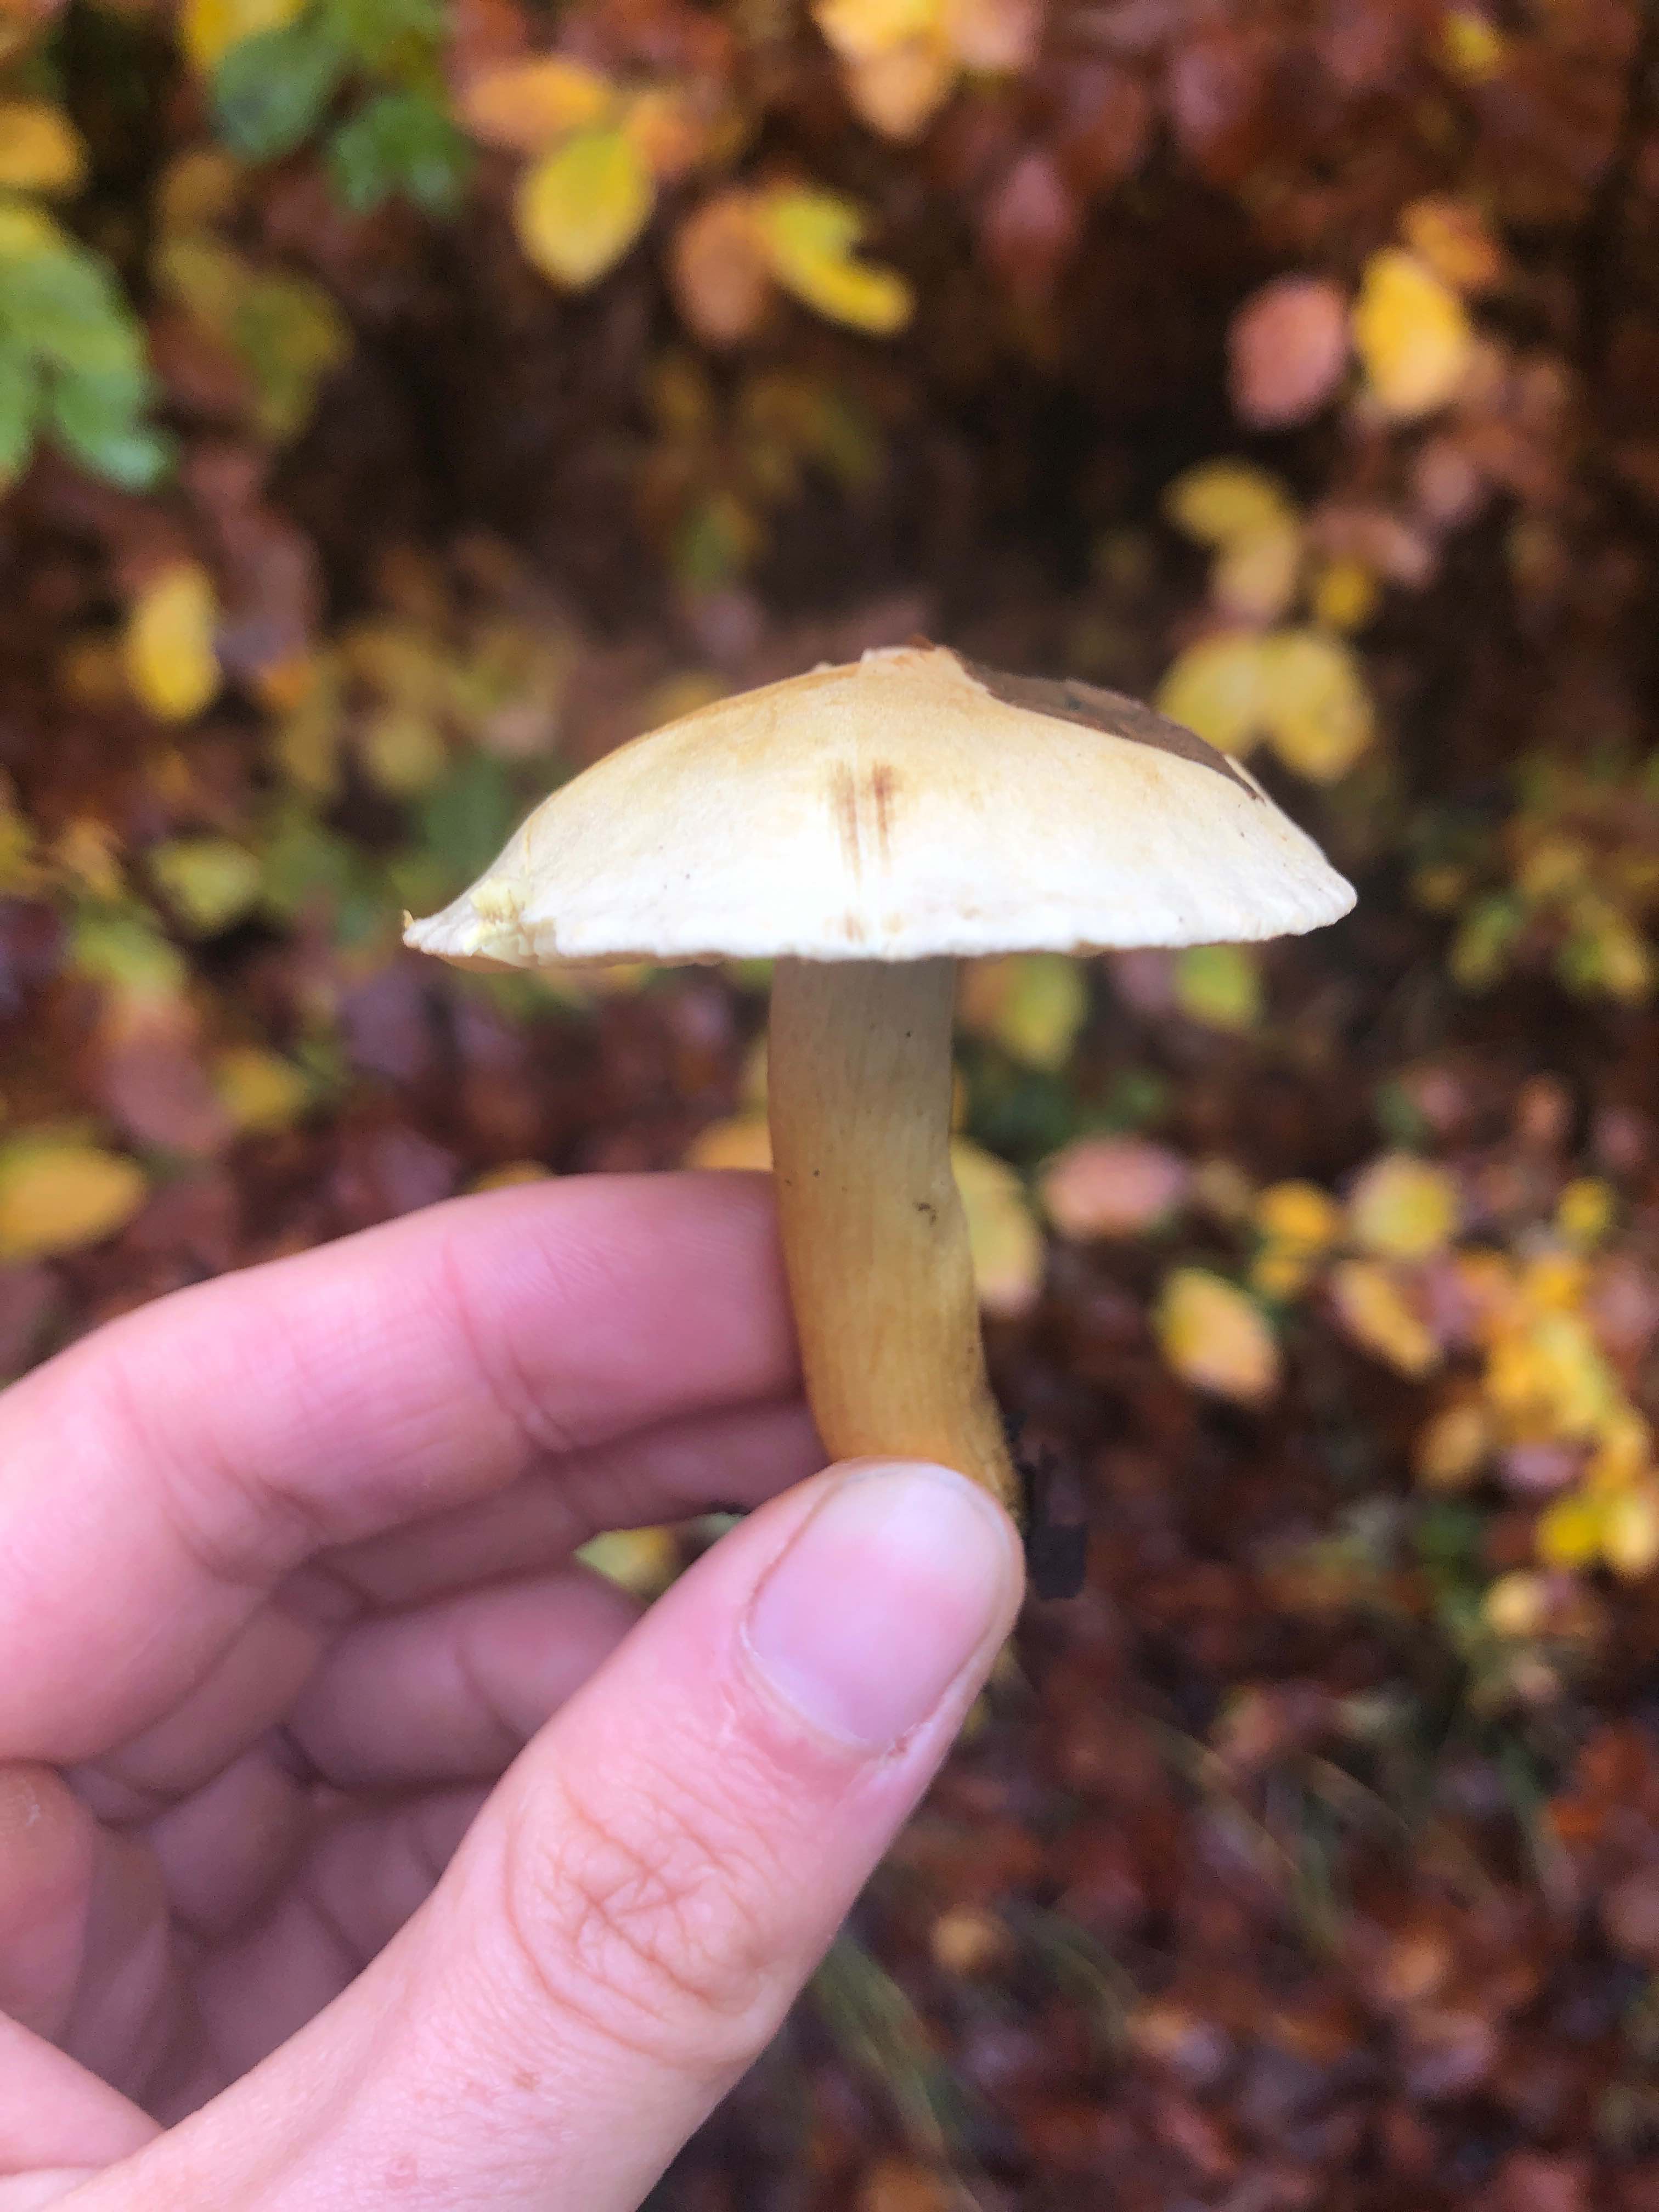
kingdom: Fungi
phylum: Basidiomycota
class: Agaricomycetes
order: Agaricales
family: Tricholomataceae
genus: Tricholoma
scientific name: Tricholoma sulphureum
